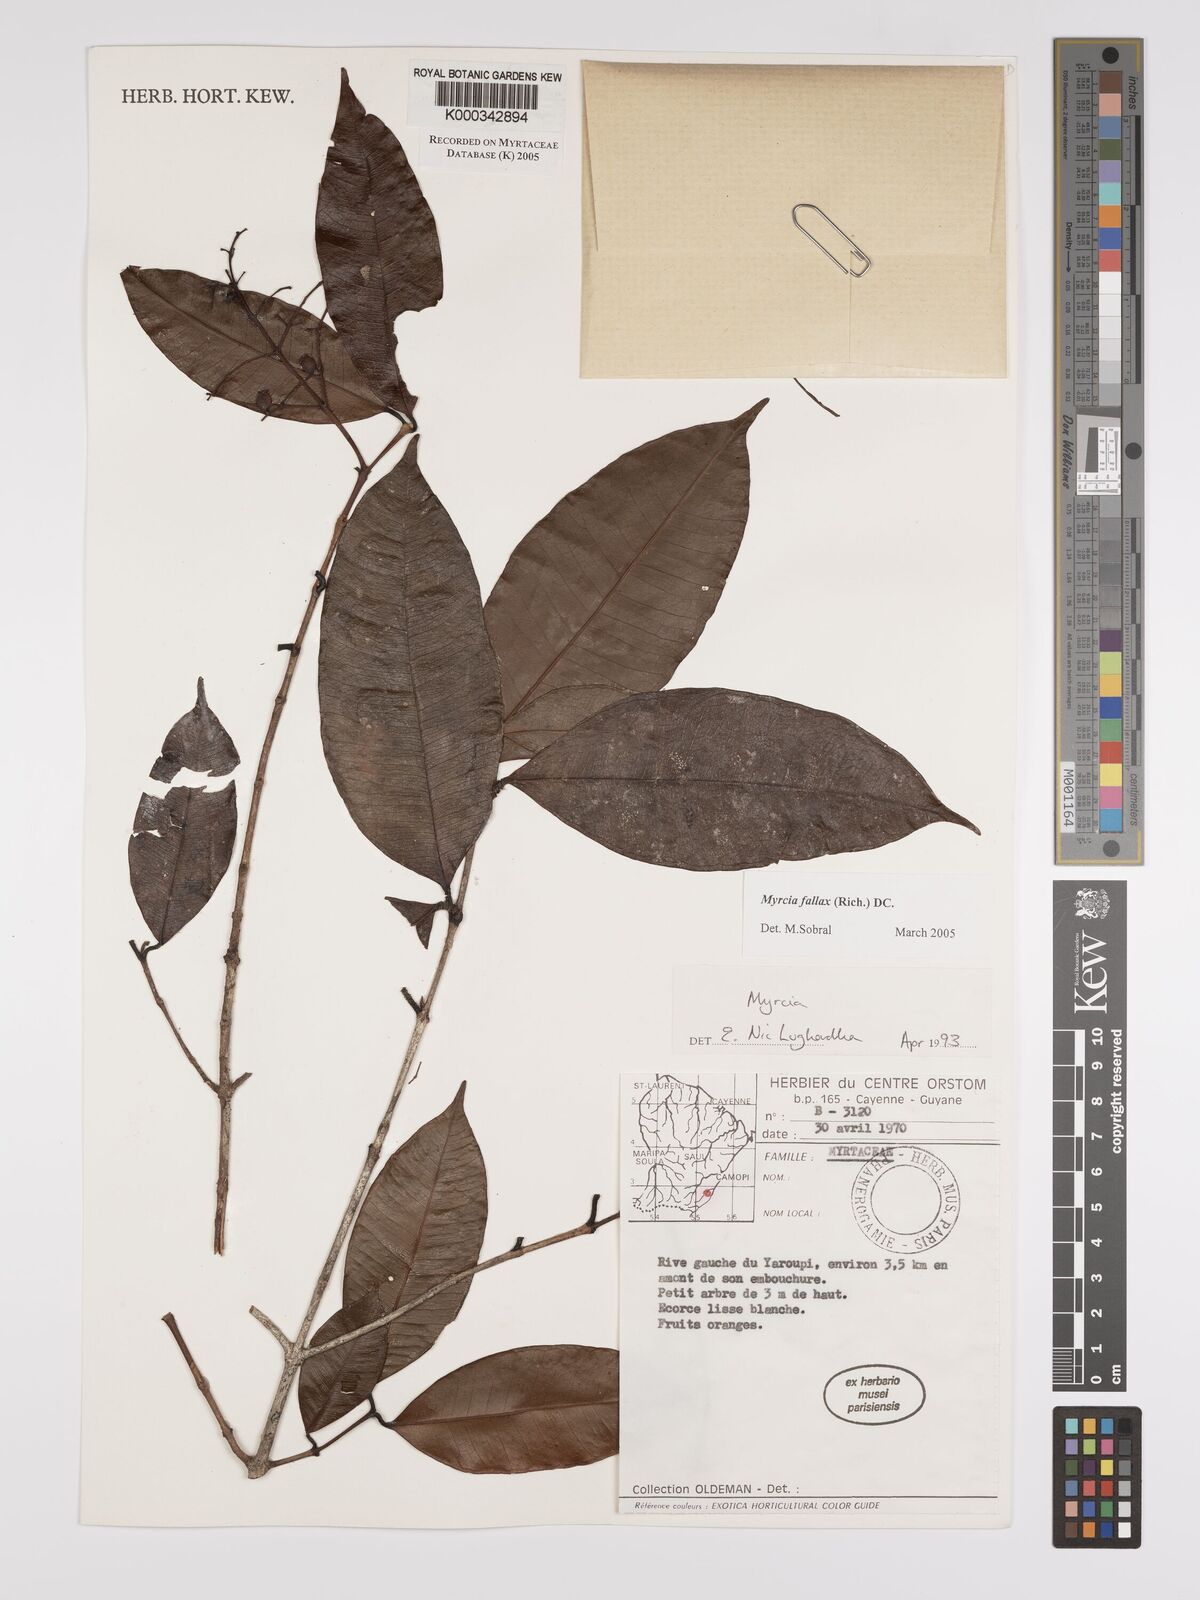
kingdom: Plantae
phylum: Tracheophyta
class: Magnoliopsida
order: Myrtales
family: Myrtaceae
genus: Myrcia
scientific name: Myrcia splendens
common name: Surinam cherry
